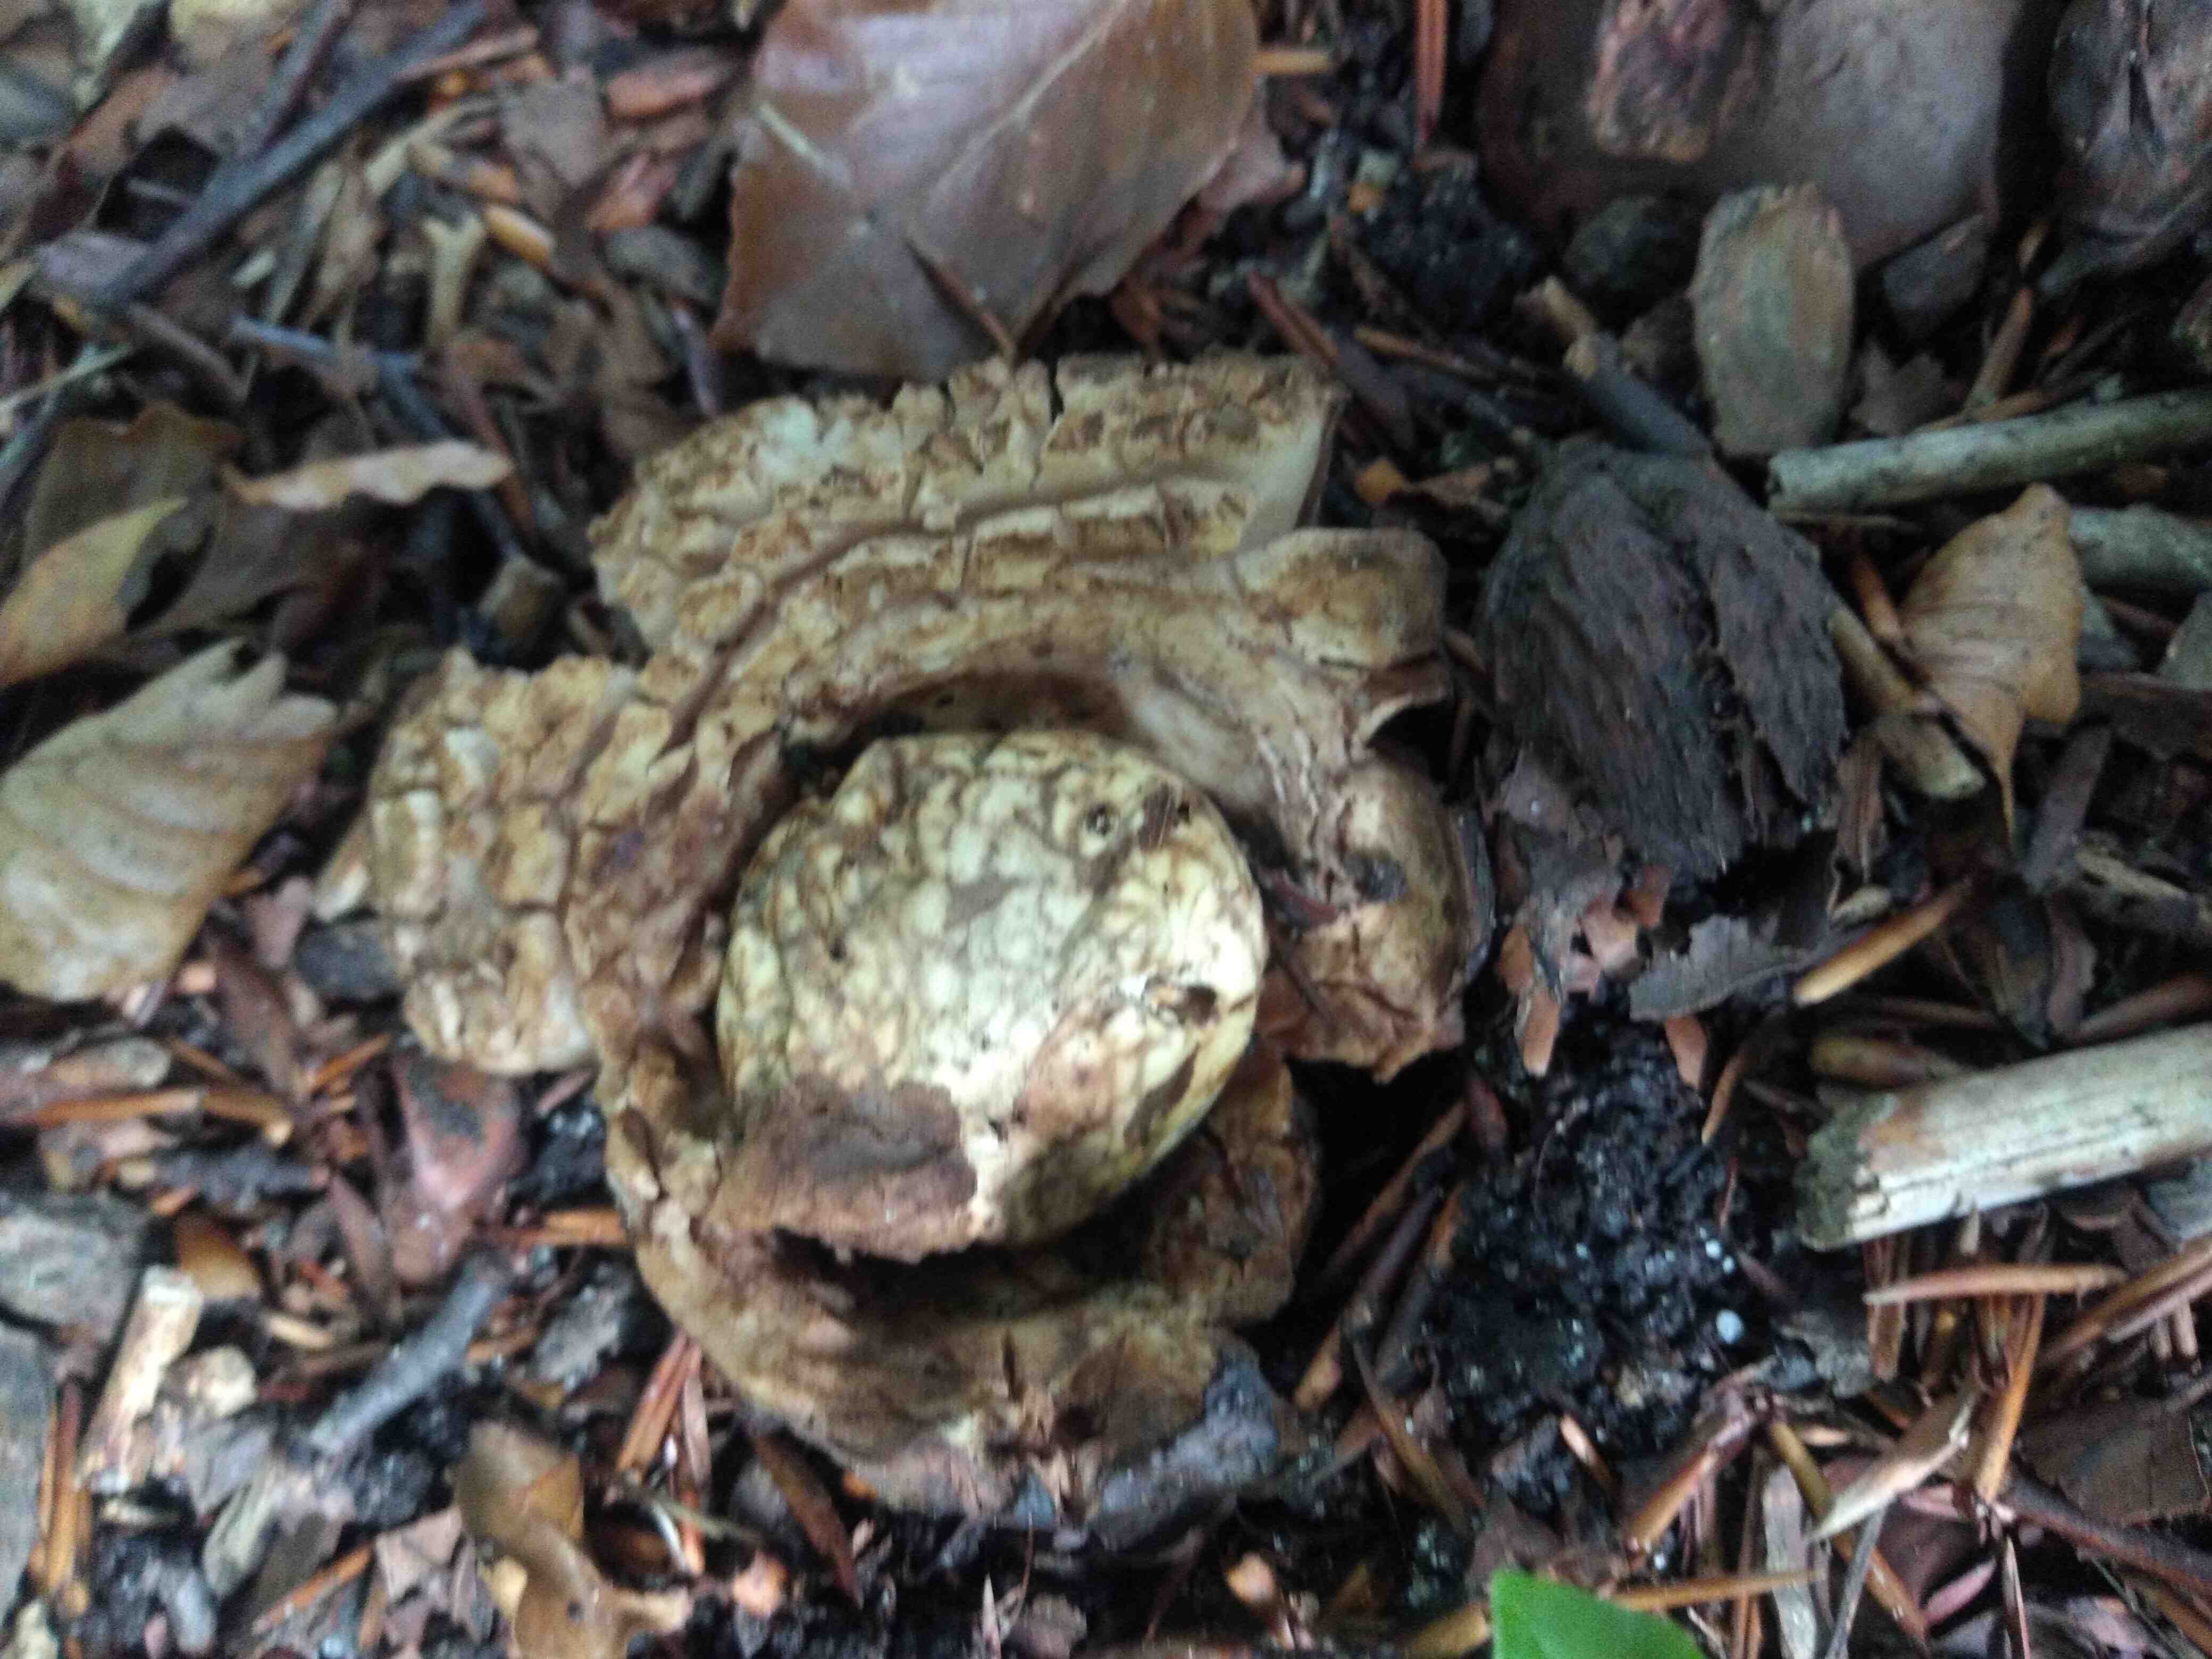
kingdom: Fungi
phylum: Basidiomycota
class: Agaricomycetes
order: Geastrales
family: Geastraceae
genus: Geastrum
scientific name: Geastrum michelianum
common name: kødet stjernebold
